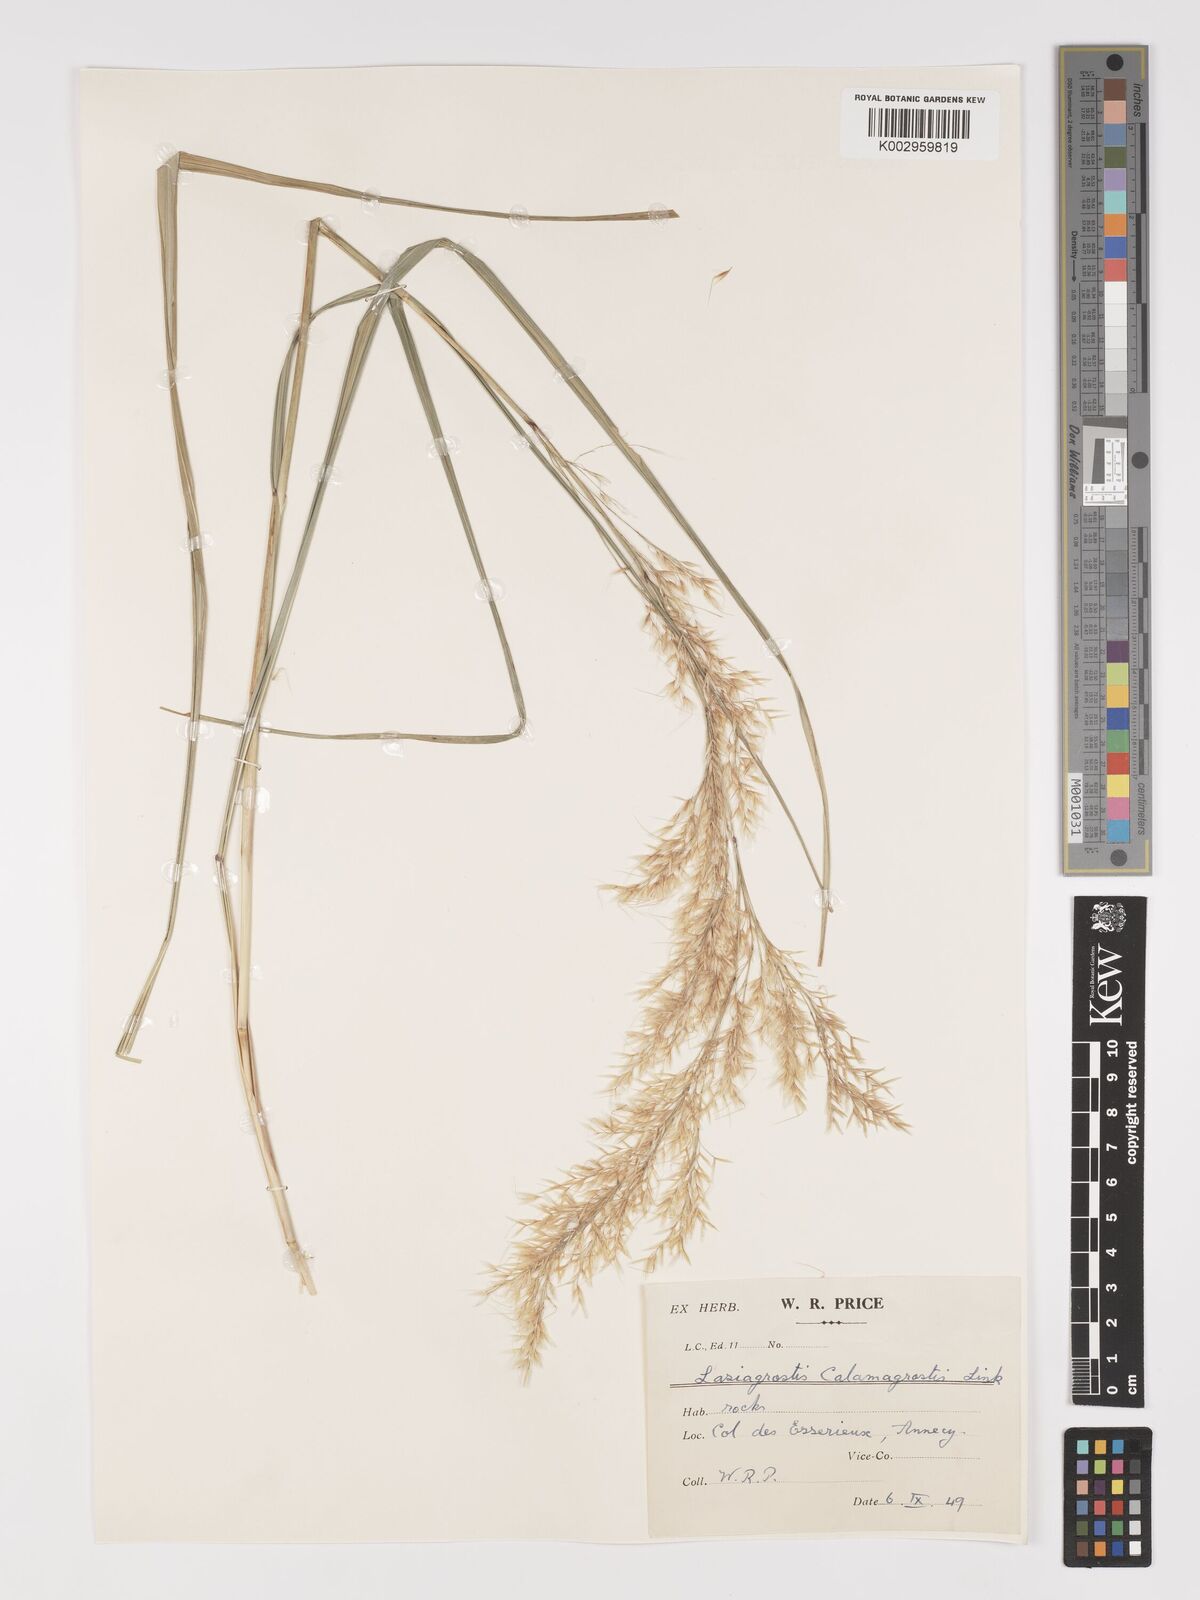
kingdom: Plantae
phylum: Tracheophyta
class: Liliopsida
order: Poales
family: Poaceae
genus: Achnatherum
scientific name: Achnatherum calamagrostis
